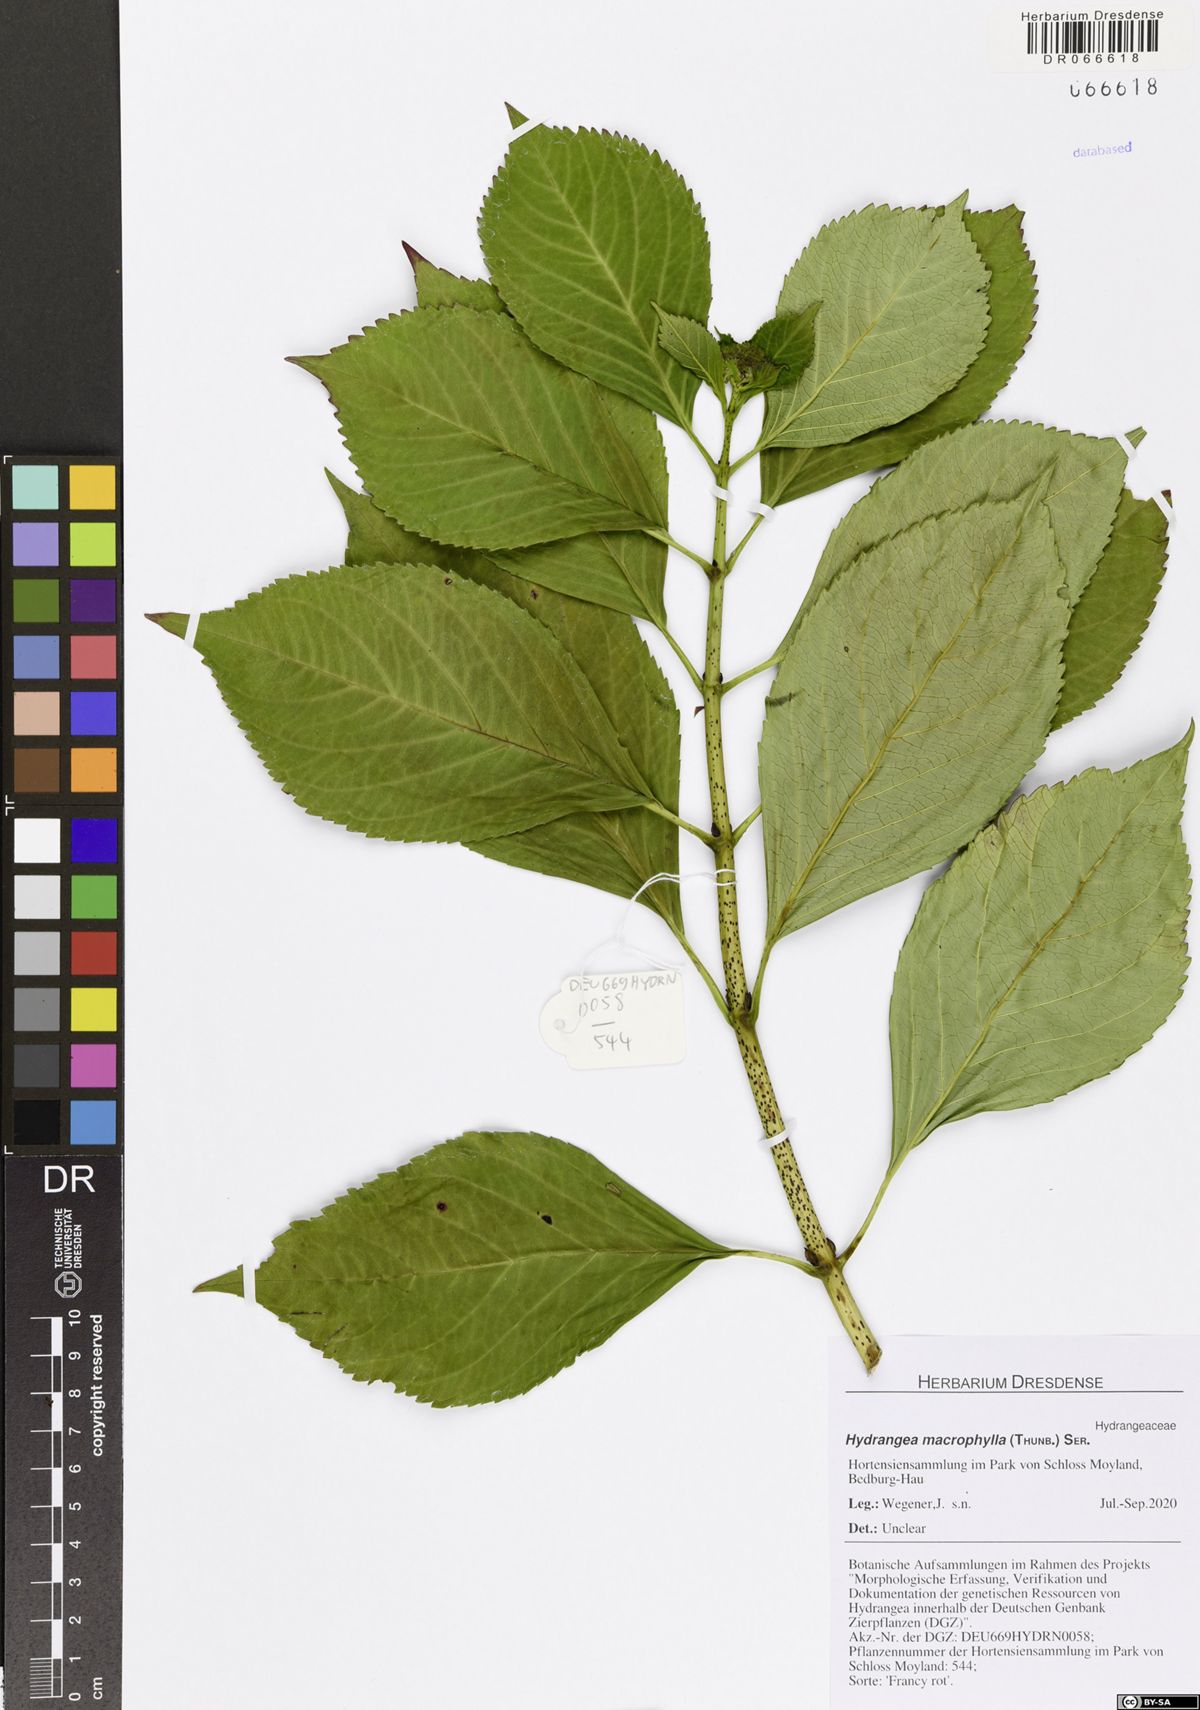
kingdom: Plantae
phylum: Tracheophyta
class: Magnoliopsida
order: Cornales
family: Hydrangeaceae
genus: Hydrangea
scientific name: Hydrangea macrophylla
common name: Hydrangea
